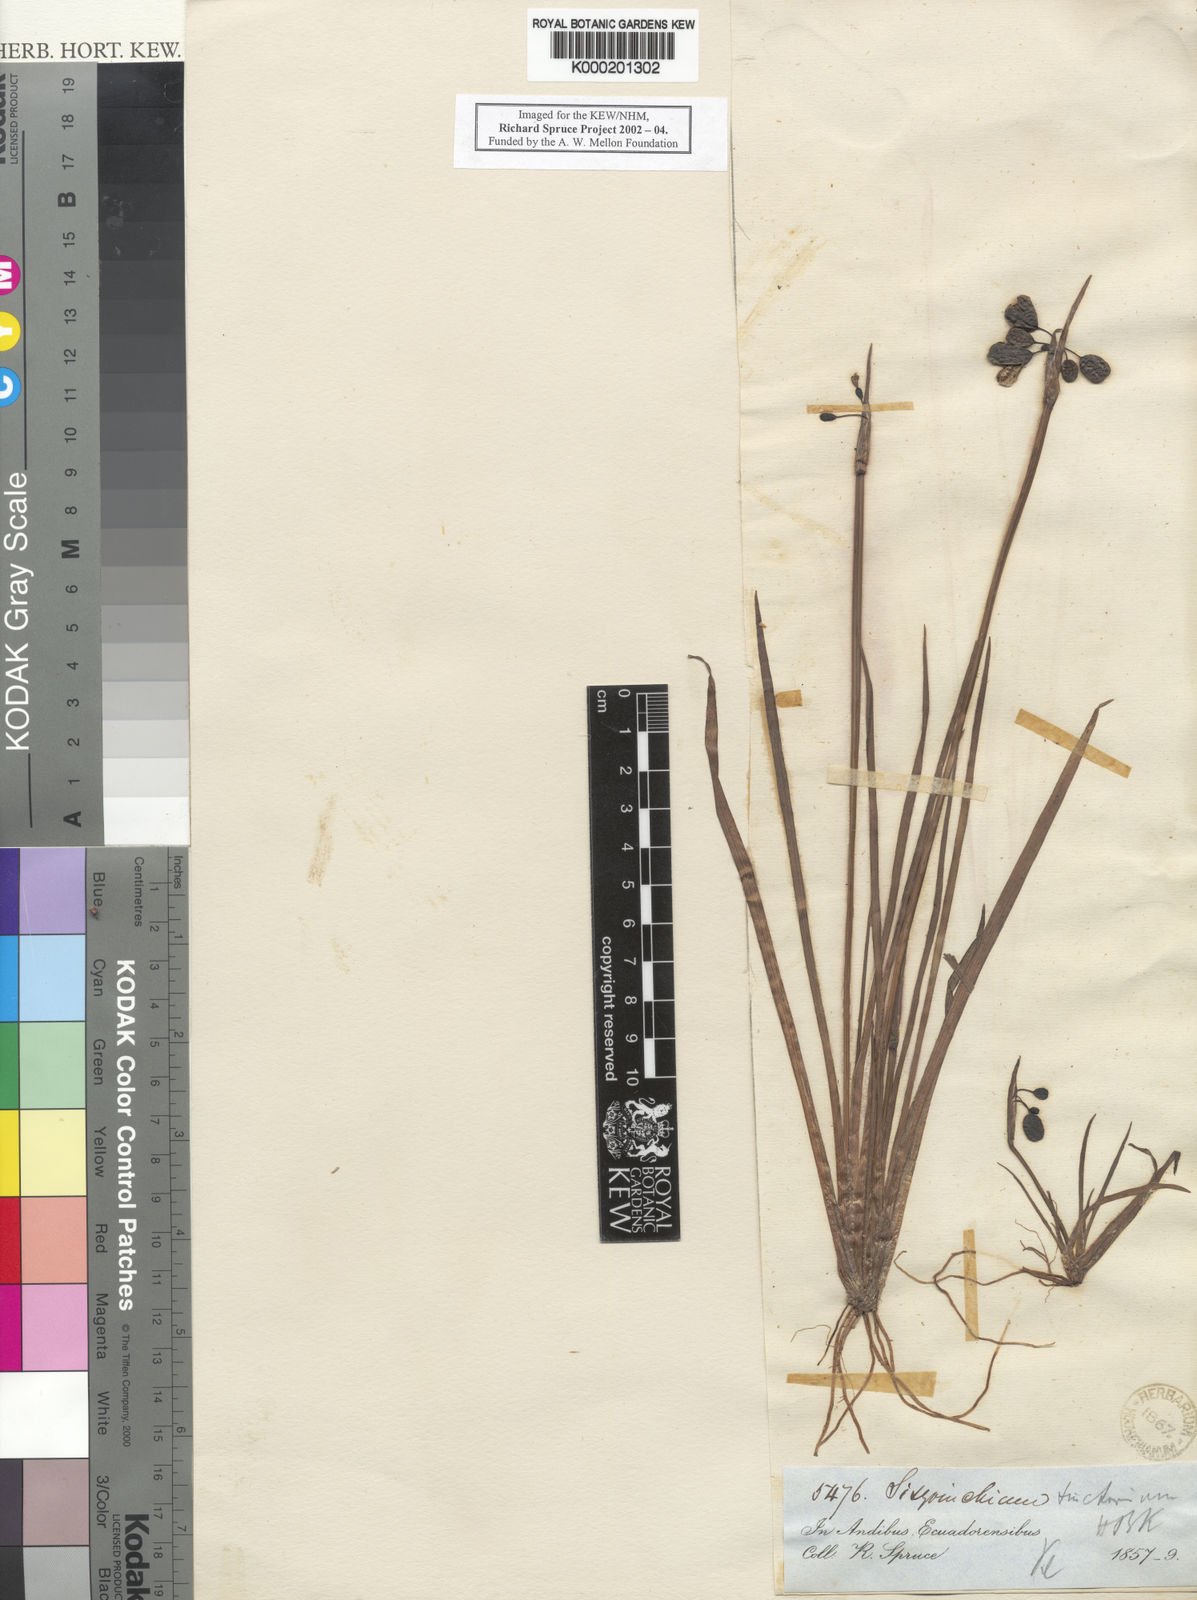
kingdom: Plantae
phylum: Tracheophyta
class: Liliopsida
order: Asparagales
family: Iridaceae
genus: Sisyrinchium
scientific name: Sisyrinchium tinctorium
